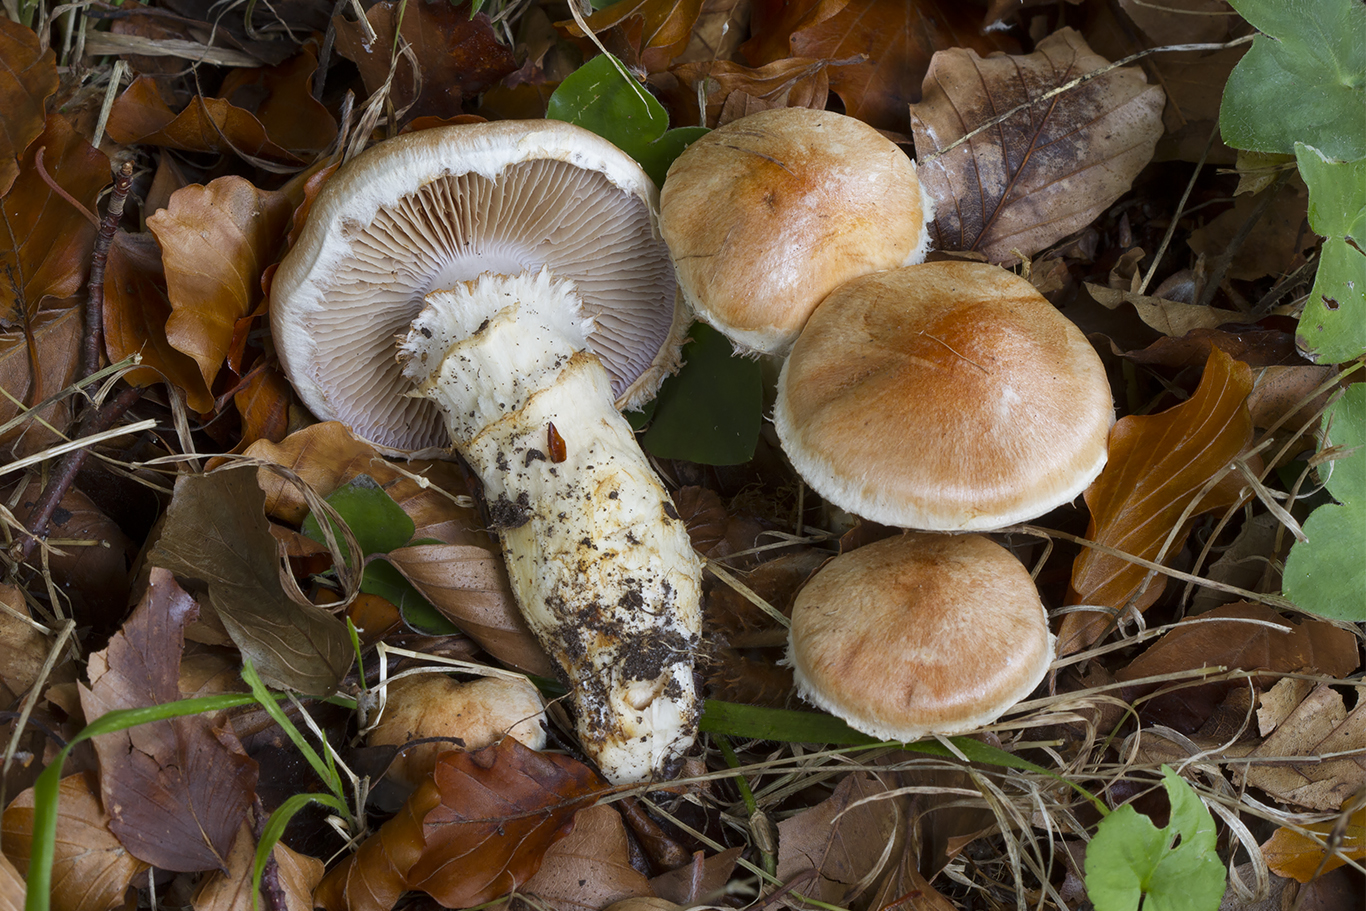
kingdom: Fungi
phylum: Basidiomycota
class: Agaricomycetes
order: Agaricales
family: Cortinariaceae
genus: Phlegmacium
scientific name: Phlegmacium vulpinum
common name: ringbæltet slørhat
